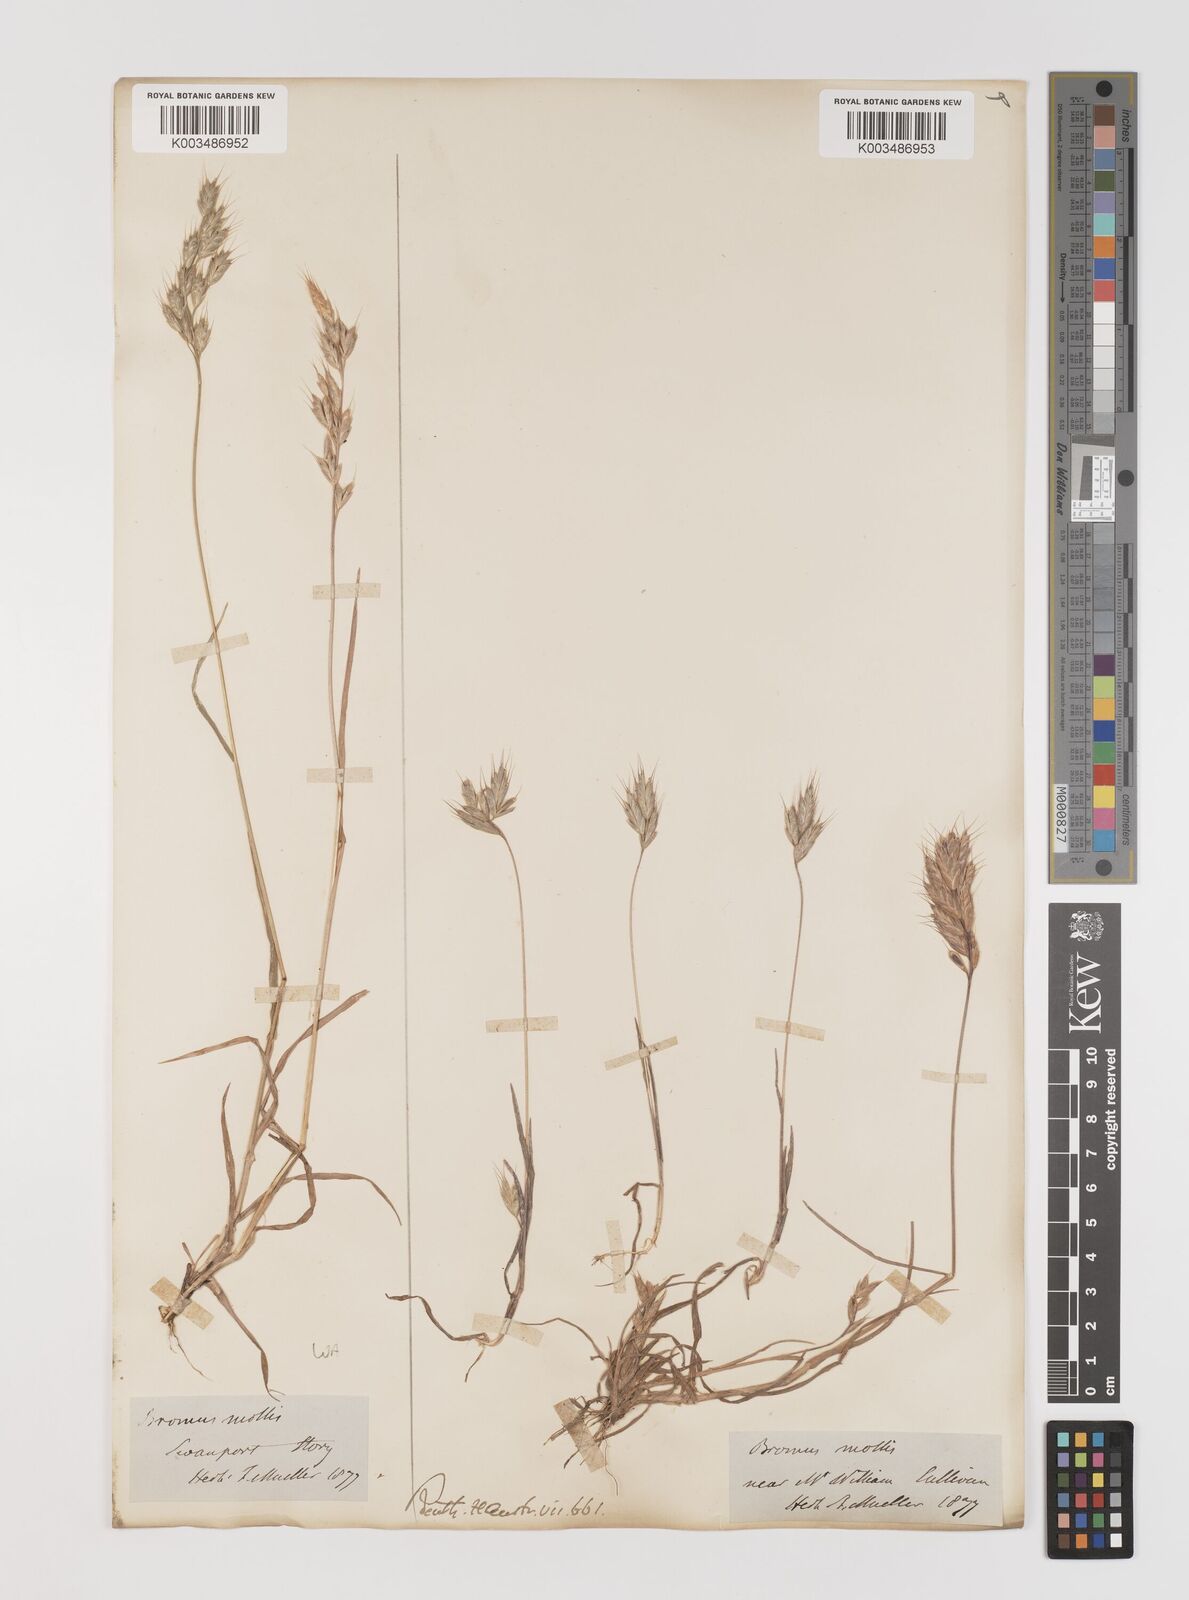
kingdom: Plantae
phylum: Tracheophyta
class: Liliopsida
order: Poales
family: Poaceae
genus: Bromus
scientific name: Bromus hordeaceus
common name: Soft brome
